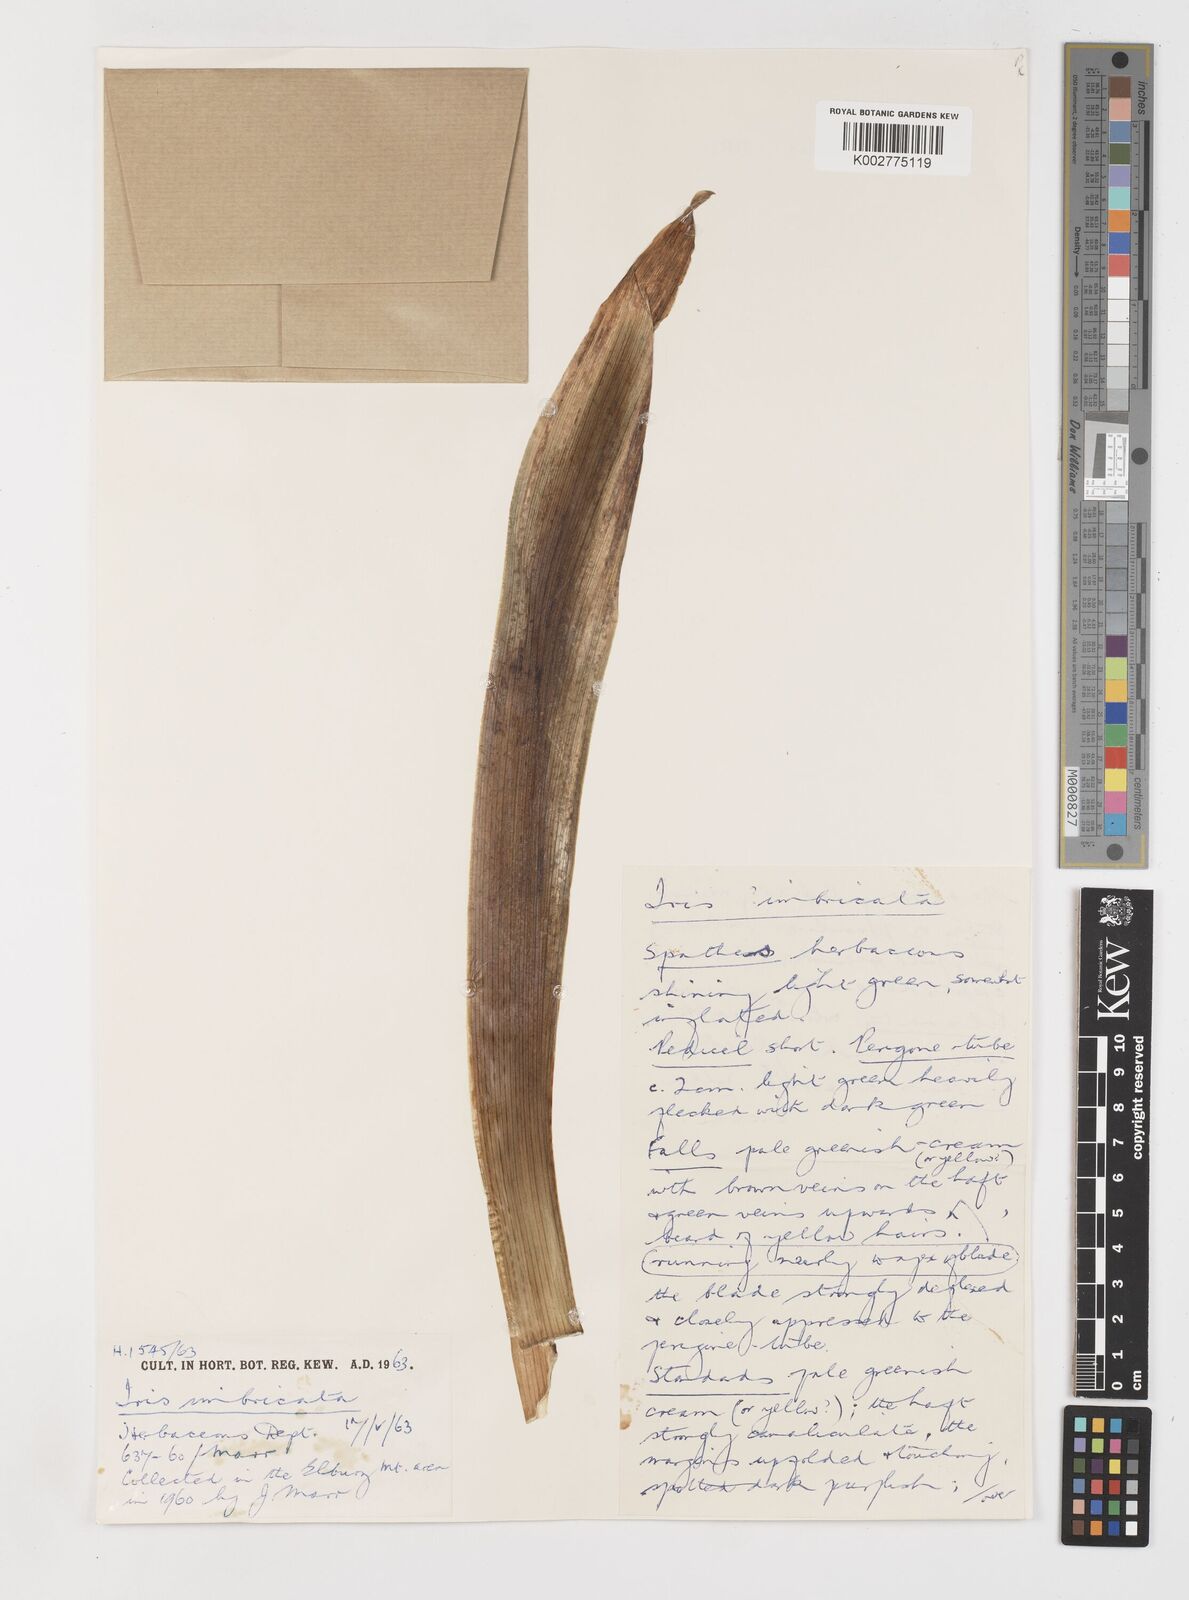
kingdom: Plantae
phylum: Tracheophyta
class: Liliopsida
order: Asparagales
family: Iridaceae
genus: Iris
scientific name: Iris imbricata
